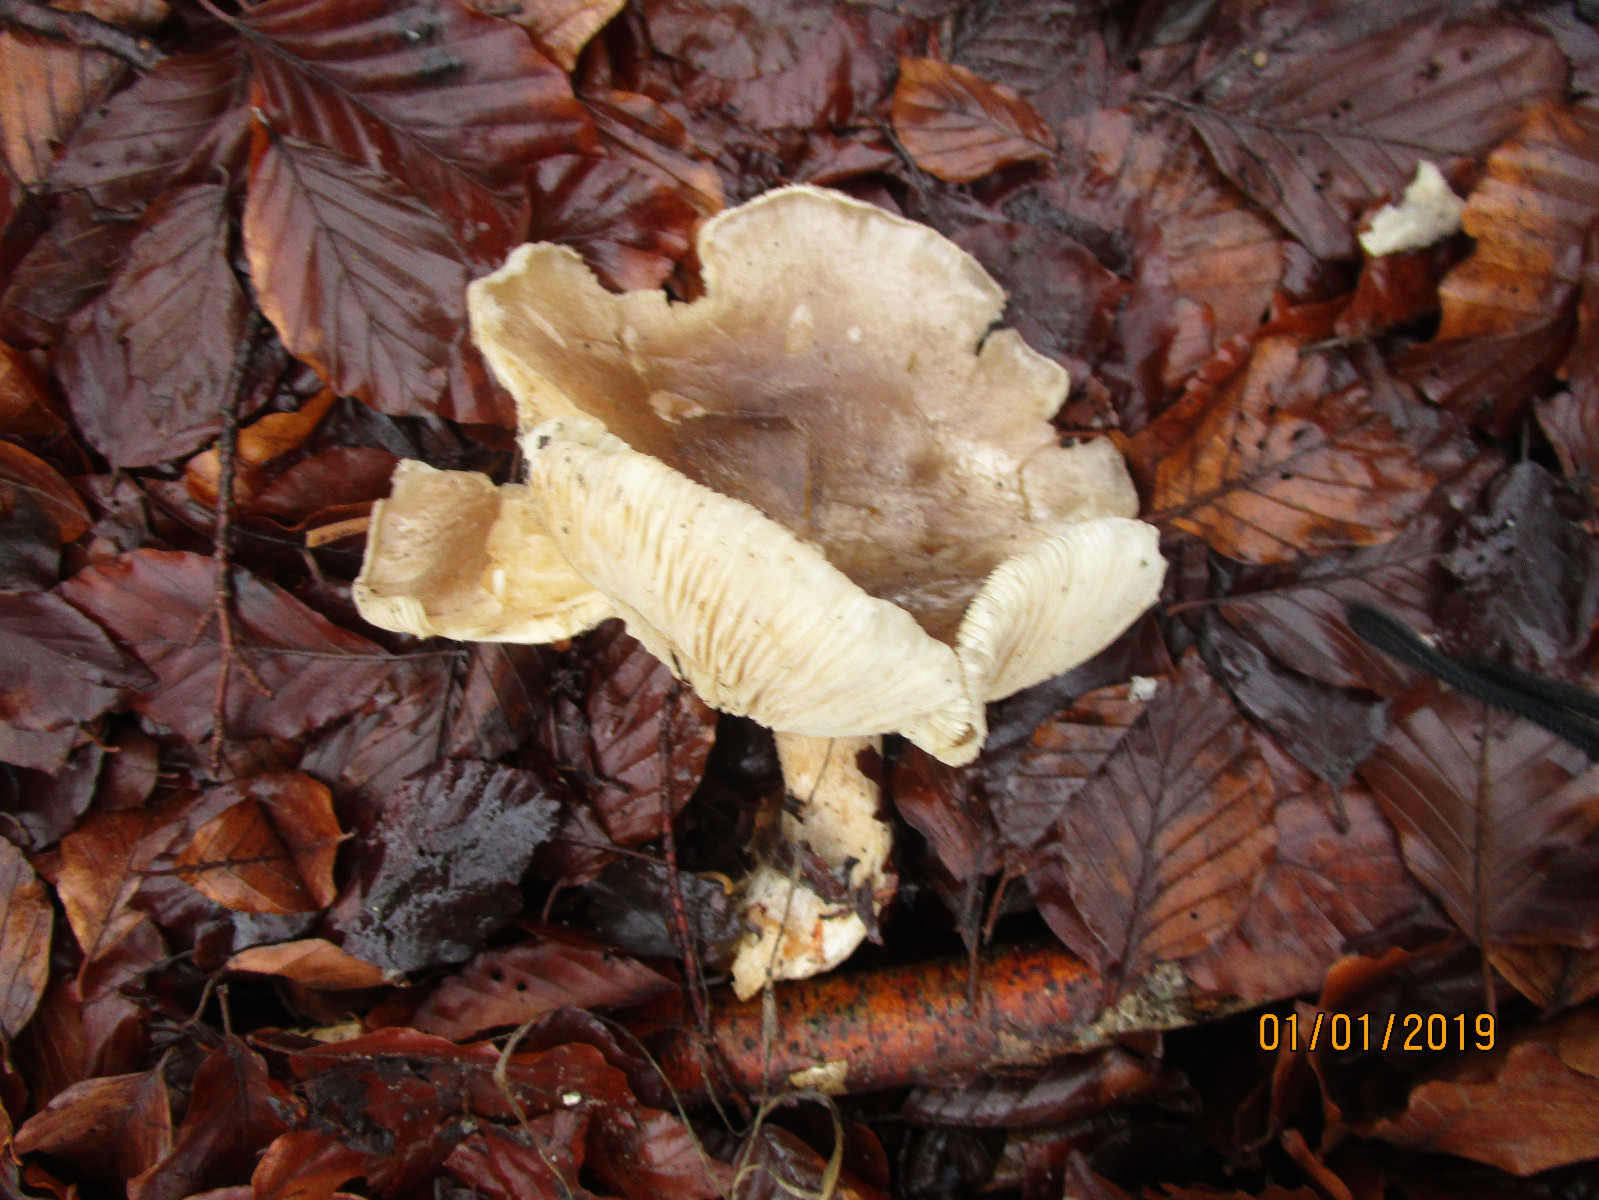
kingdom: Fungi
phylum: Basidiomycota
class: Agaricomycetes
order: Agaricales
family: Tricholomataceae
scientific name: Tricholomataceae
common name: ridderhatfamilien
